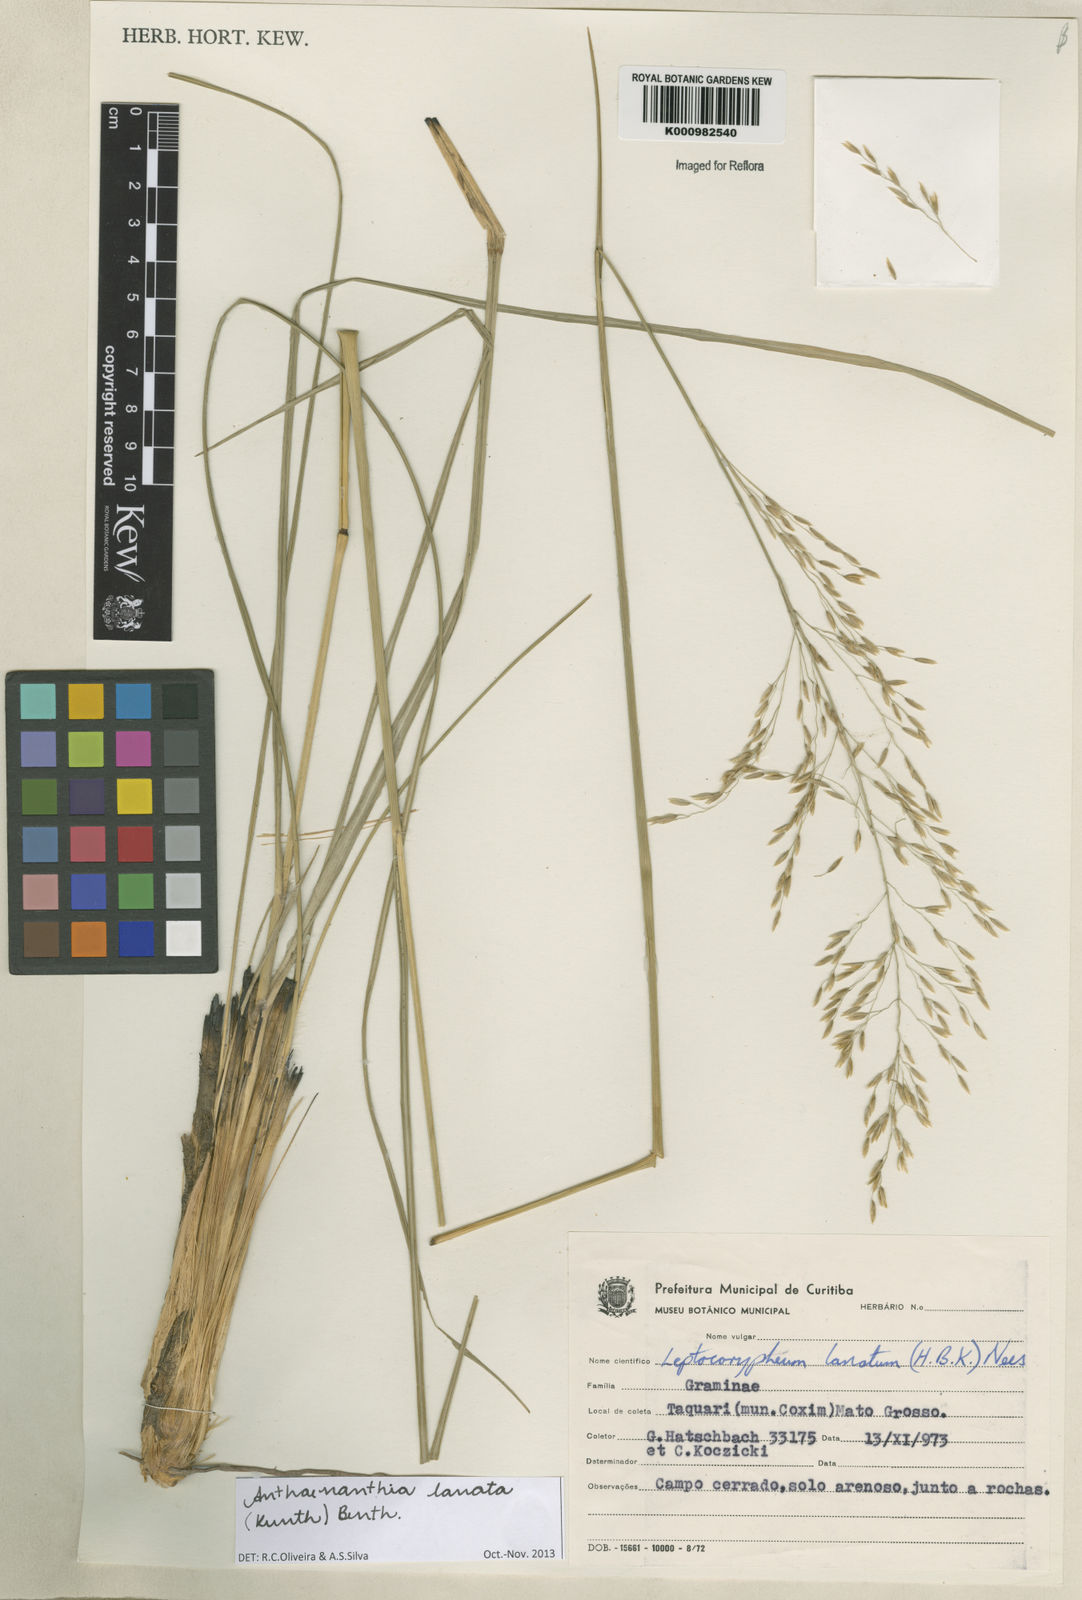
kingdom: Plantae
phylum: Tracheophyta
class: Liliopsida
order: Poales
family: Poaceae
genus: Anthenantia
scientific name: Anthenantia lanata
